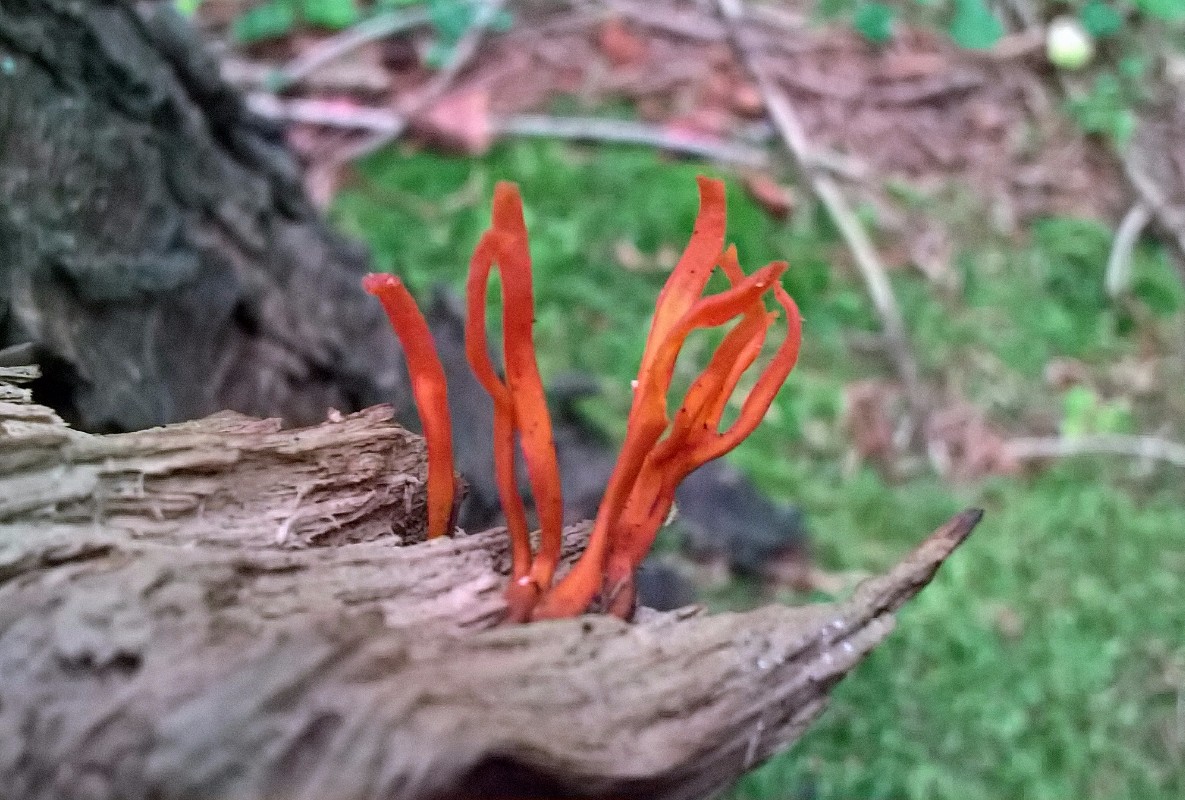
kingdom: Fungi
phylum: Basidiomycota
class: Dacrymycetes
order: Dacrymycetales
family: Dacrymycetaceae
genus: Calocera
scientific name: Calocera viscosa
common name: almindelig guldgaffel
